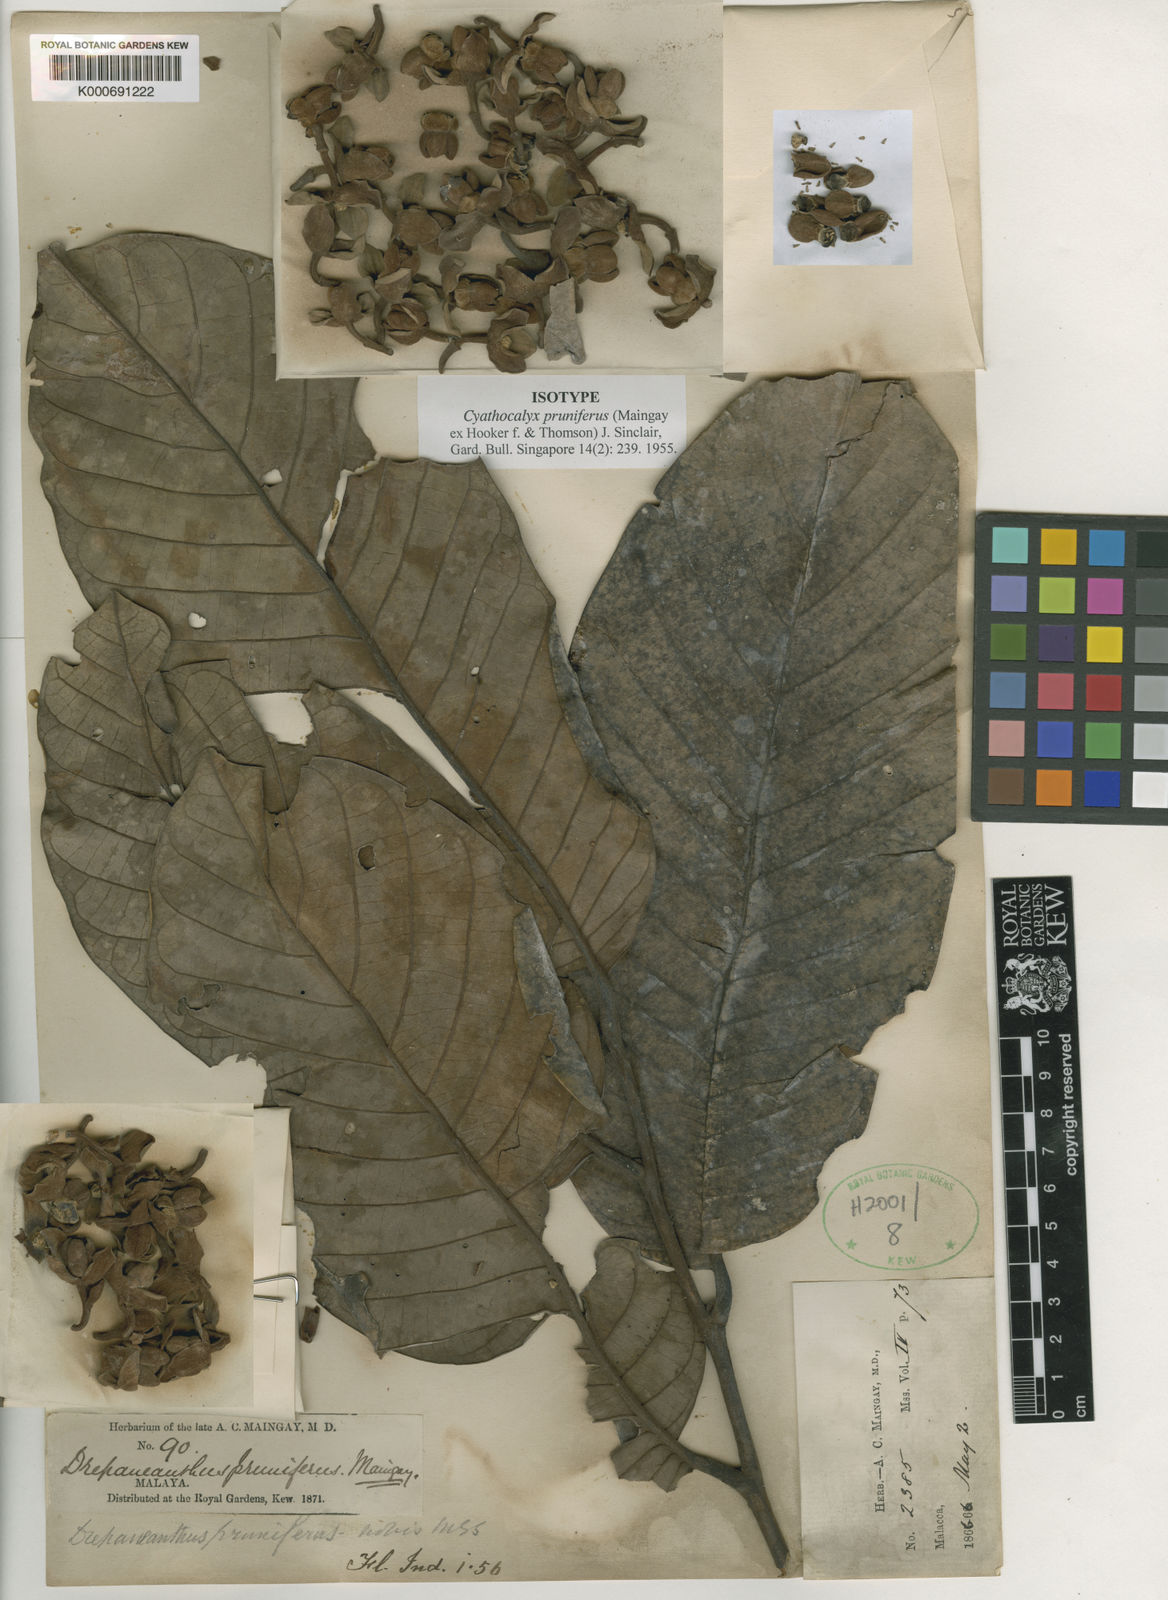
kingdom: Plantae
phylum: Tracheophyta
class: Magnoliopsida
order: Magnoliales
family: Annonaceae
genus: Cyathocalyx
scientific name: Cyathocalyx
